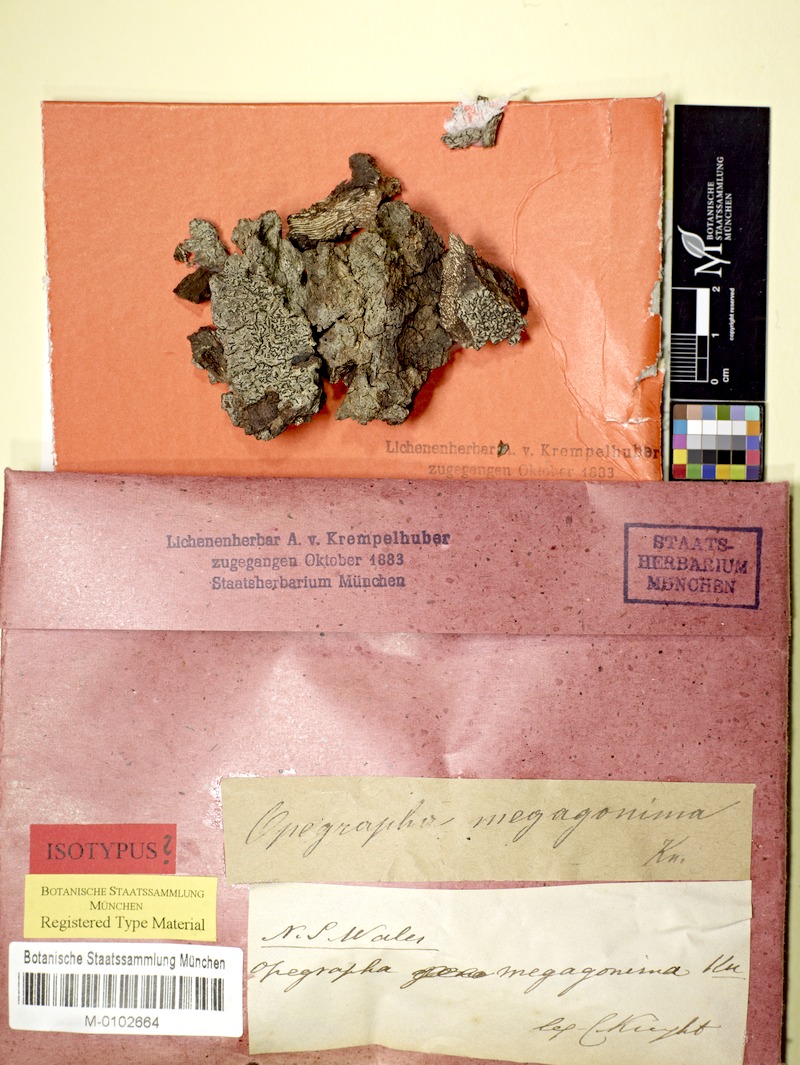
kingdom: Fungi
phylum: Ascomycota
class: Arthoniomycetes
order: Arthoniales
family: Opegraphaceae
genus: Opegrapha
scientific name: Opegrapha megagonidia
